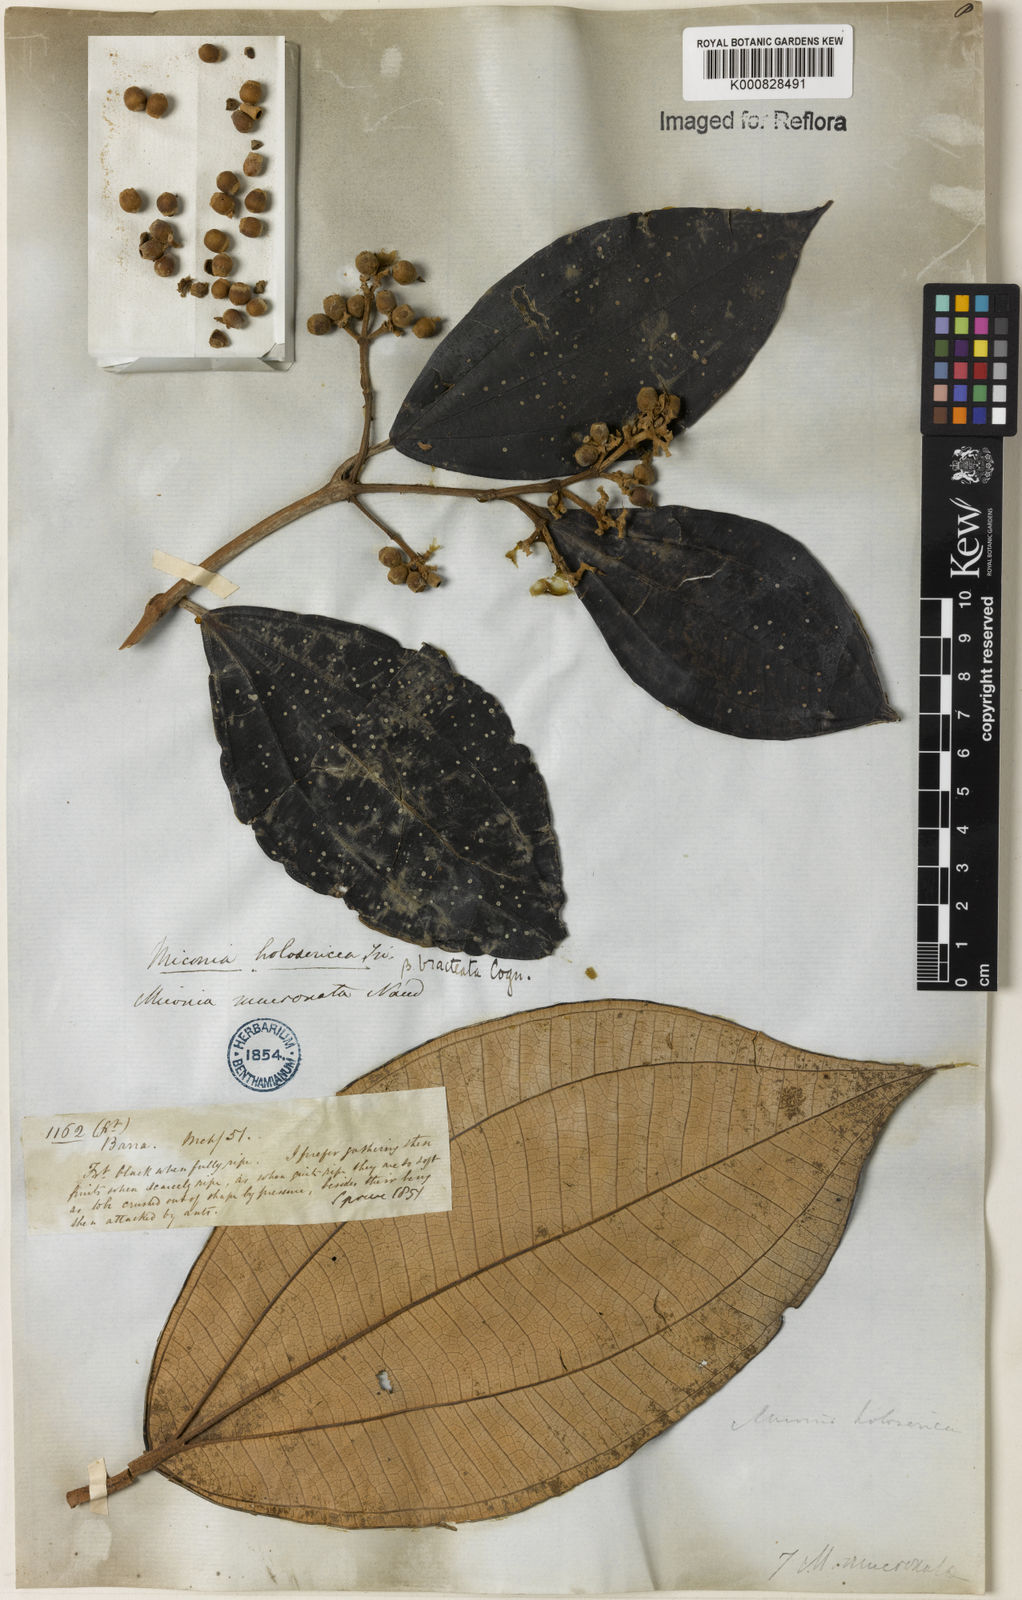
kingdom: Plantae
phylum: Tracheophyta
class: Magnoliopsida
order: Myrtales
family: Melastomataceae
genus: Miconia
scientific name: Miconia holosericea
